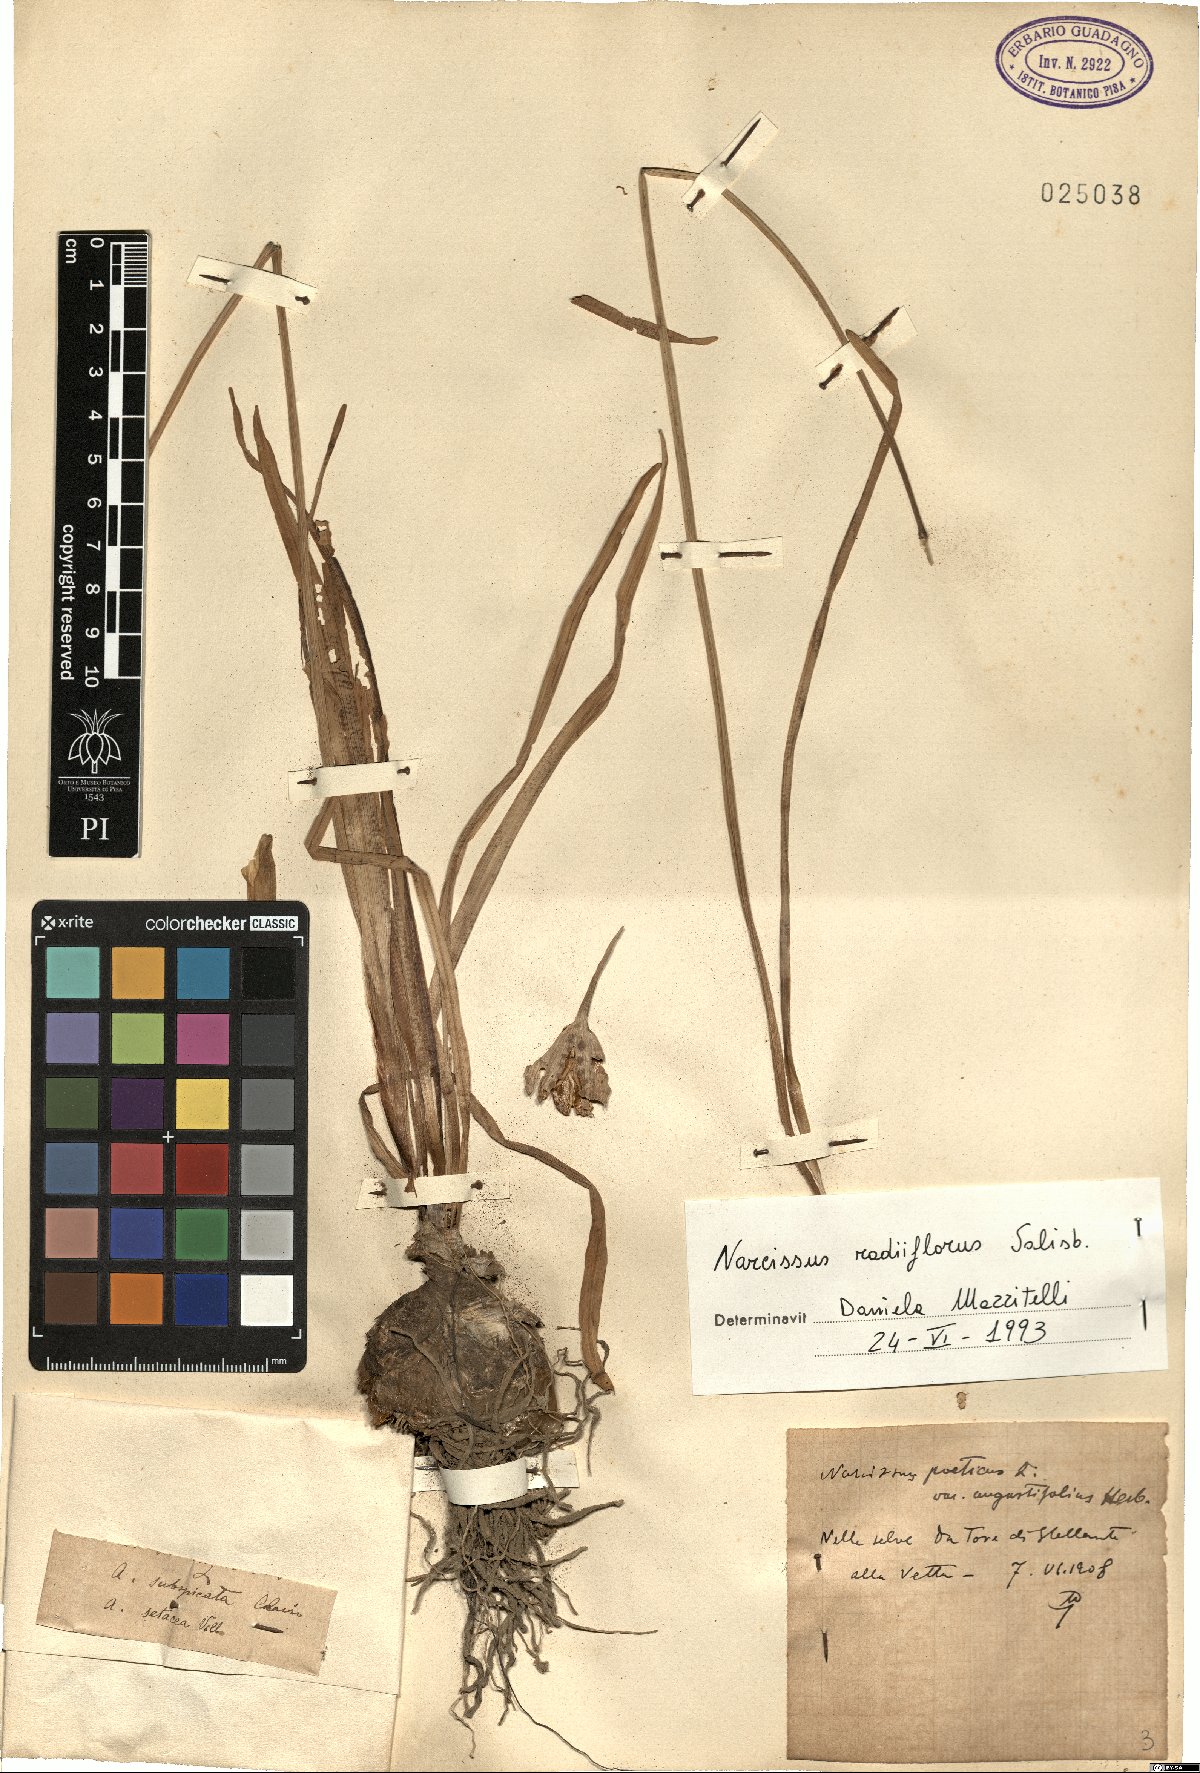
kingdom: Plantae
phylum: Tracheophyta
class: Liliopsida
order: Asparagales
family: Amaryllidaceae
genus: Narcissus
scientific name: Narcissus poeticus
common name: Pheasant's-eye daffodil
